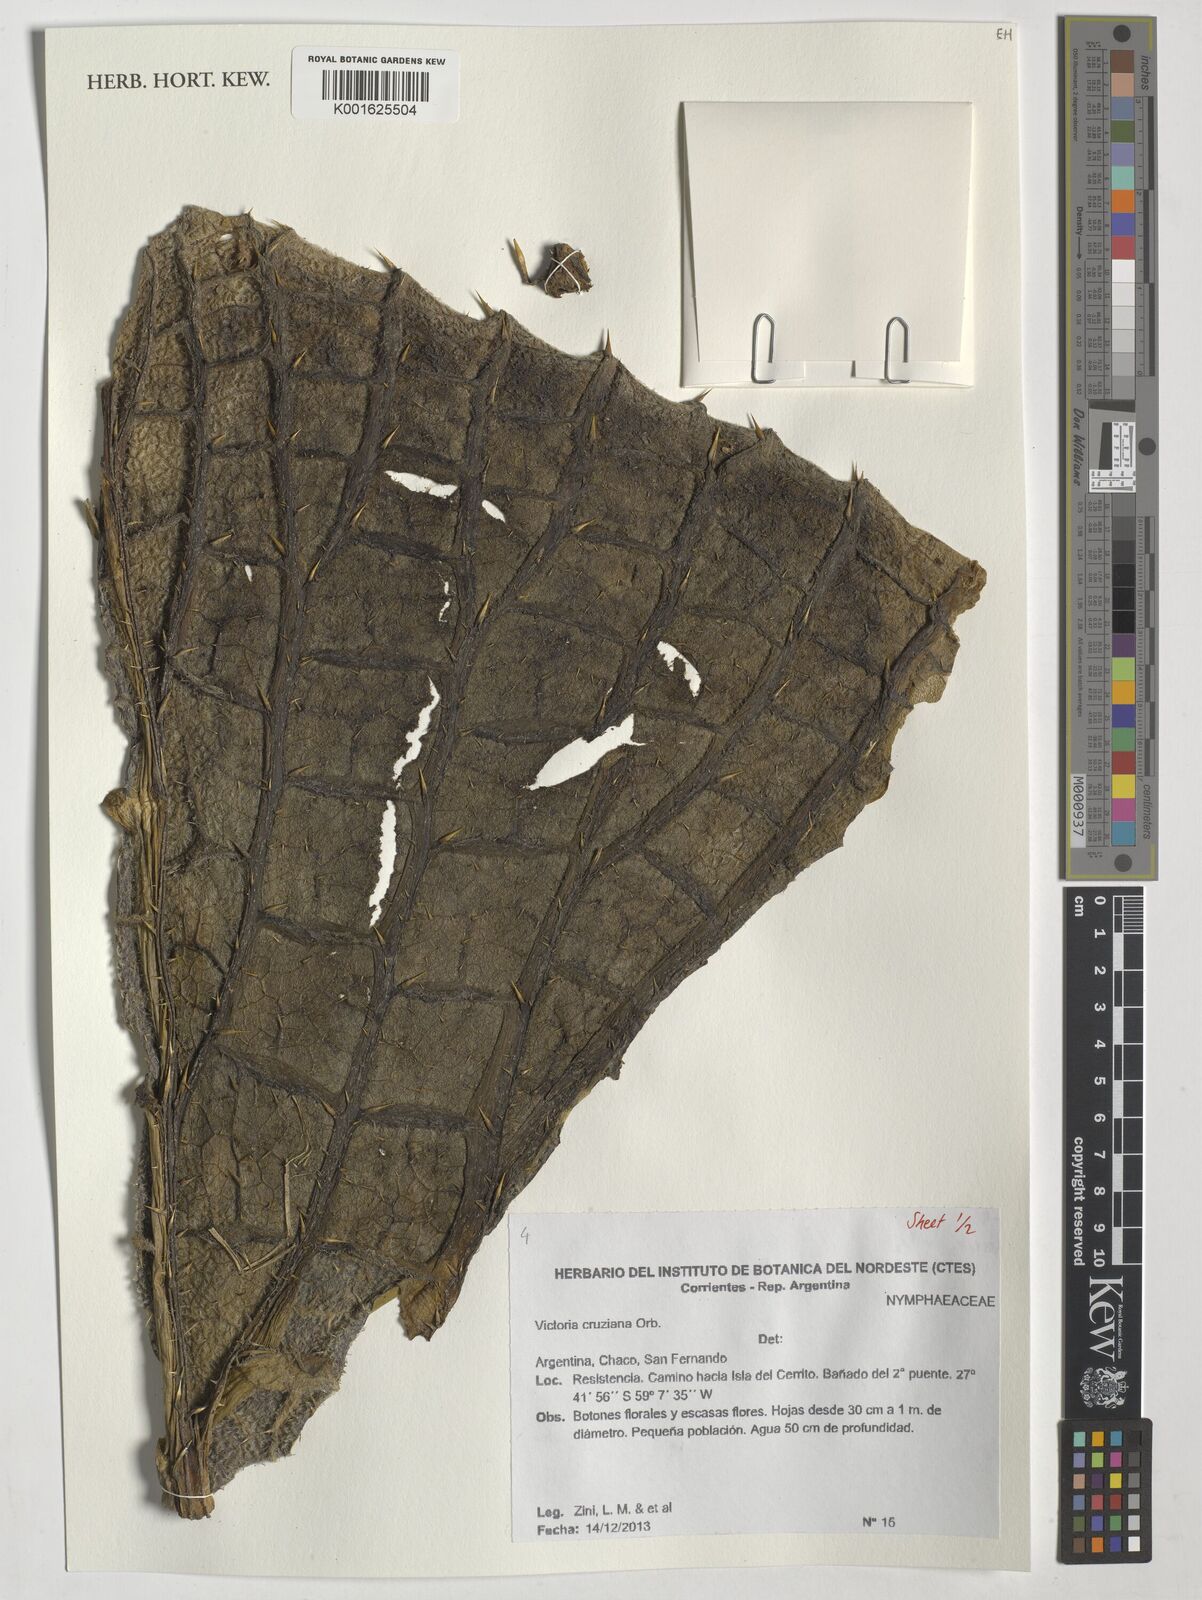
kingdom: Plantae
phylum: Tracheophyta
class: Magnoliopsida
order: Nymphaeales
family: Nymphaeaceae
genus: Victoria
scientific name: Victoria cruziana
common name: Santa cruz water-lily
